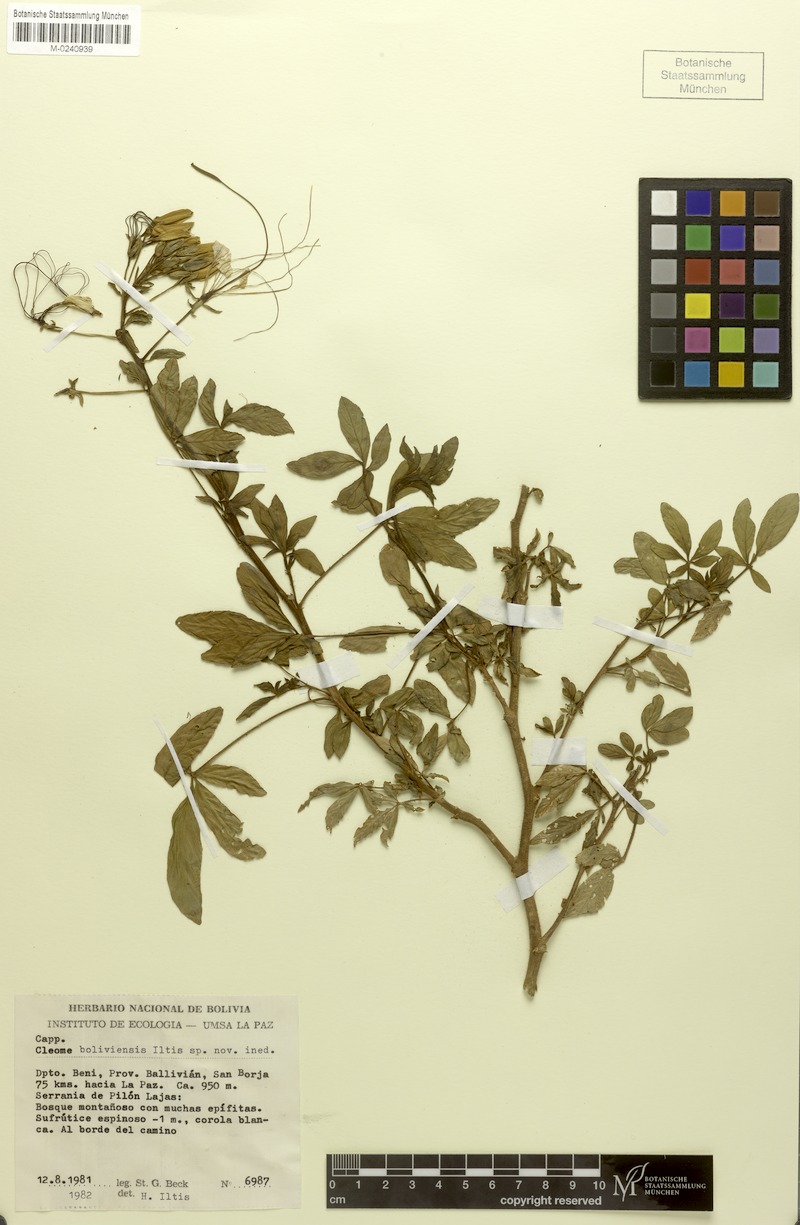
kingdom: Plantae
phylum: Tracheophyta
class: Magnoliopsida
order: Brassicales
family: Cleomaceae
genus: Tarenaya
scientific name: Tarenaya boliviensis
